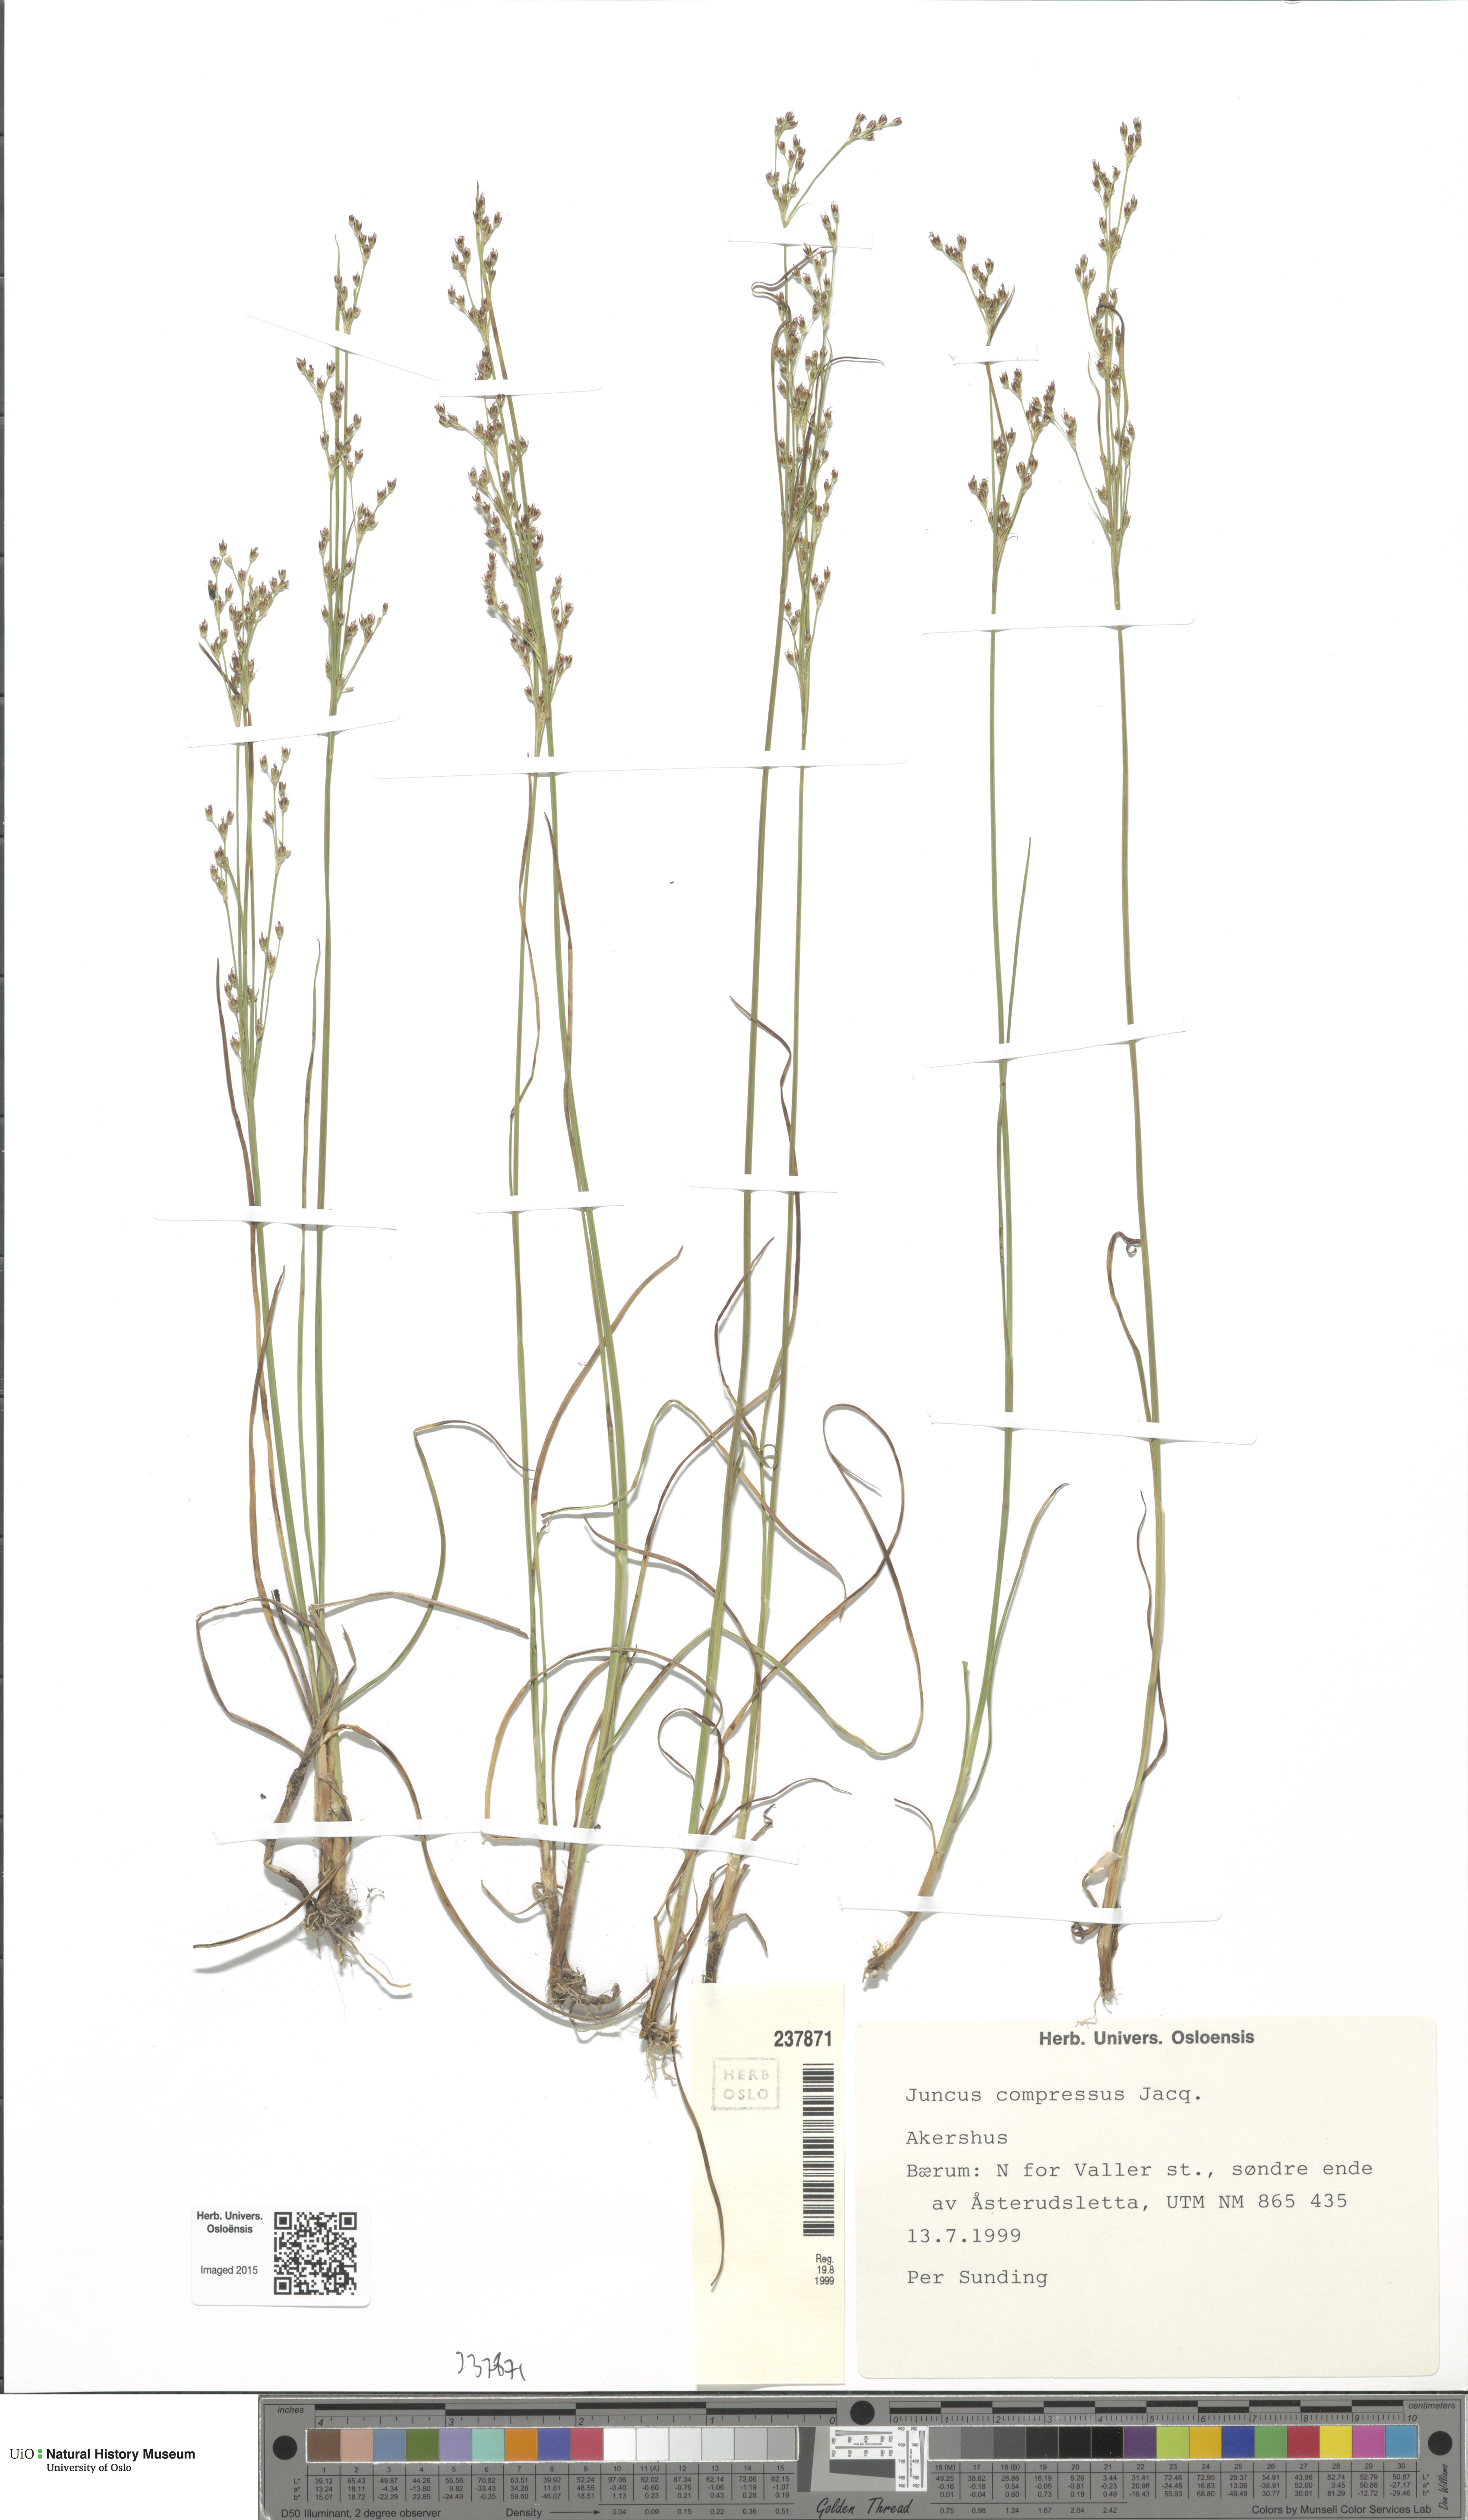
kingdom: Plantae
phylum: Tracheophyta
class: Liliopsida
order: Poales
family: Juncaceae
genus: Juncus
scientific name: Juncus compressus
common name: Round-fruited rush
